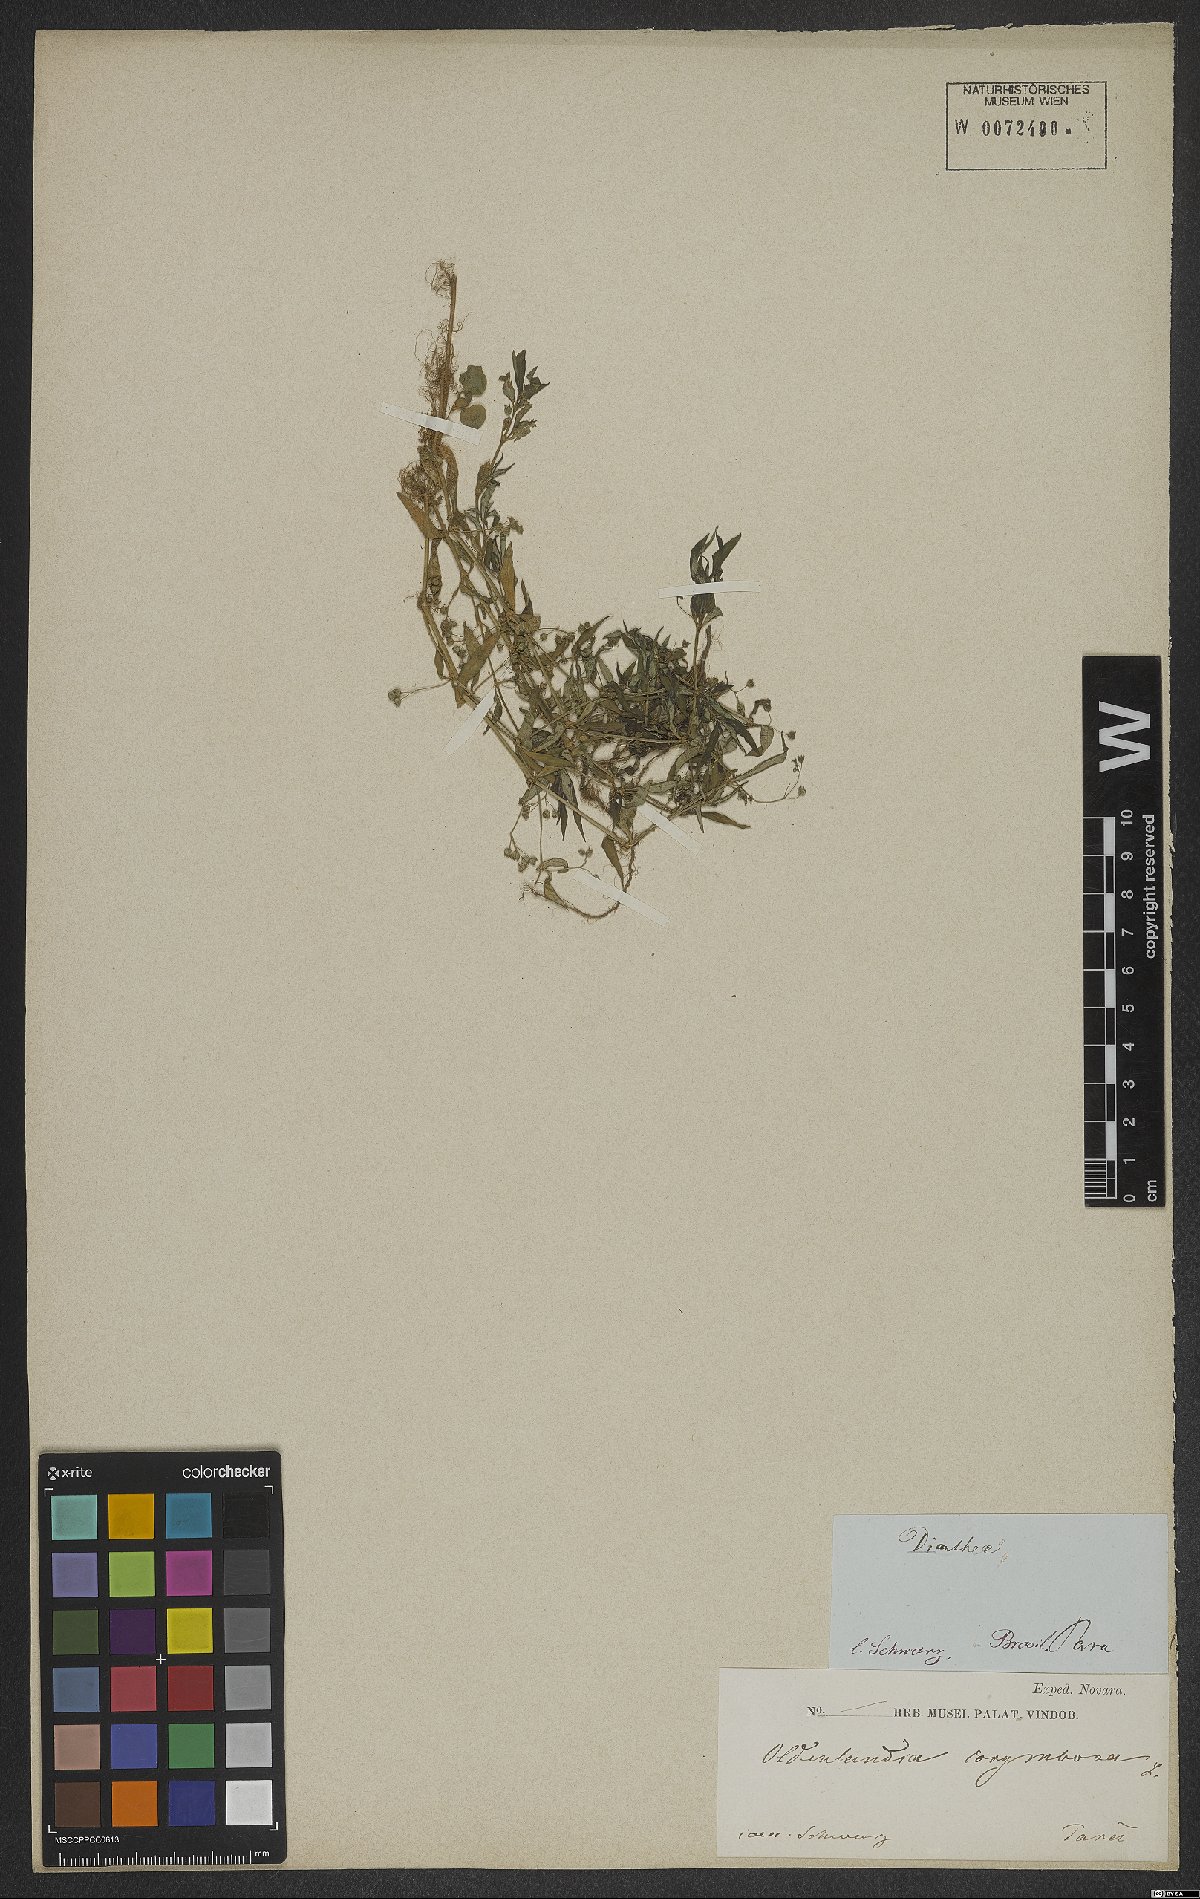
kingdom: Plantae
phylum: Tracheophyta
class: Magnoliopsida
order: Gentianales
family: Rubiaceae
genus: Oldenlandia
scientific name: Oldenlandia corymbosa
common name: Flat-top mille graines
